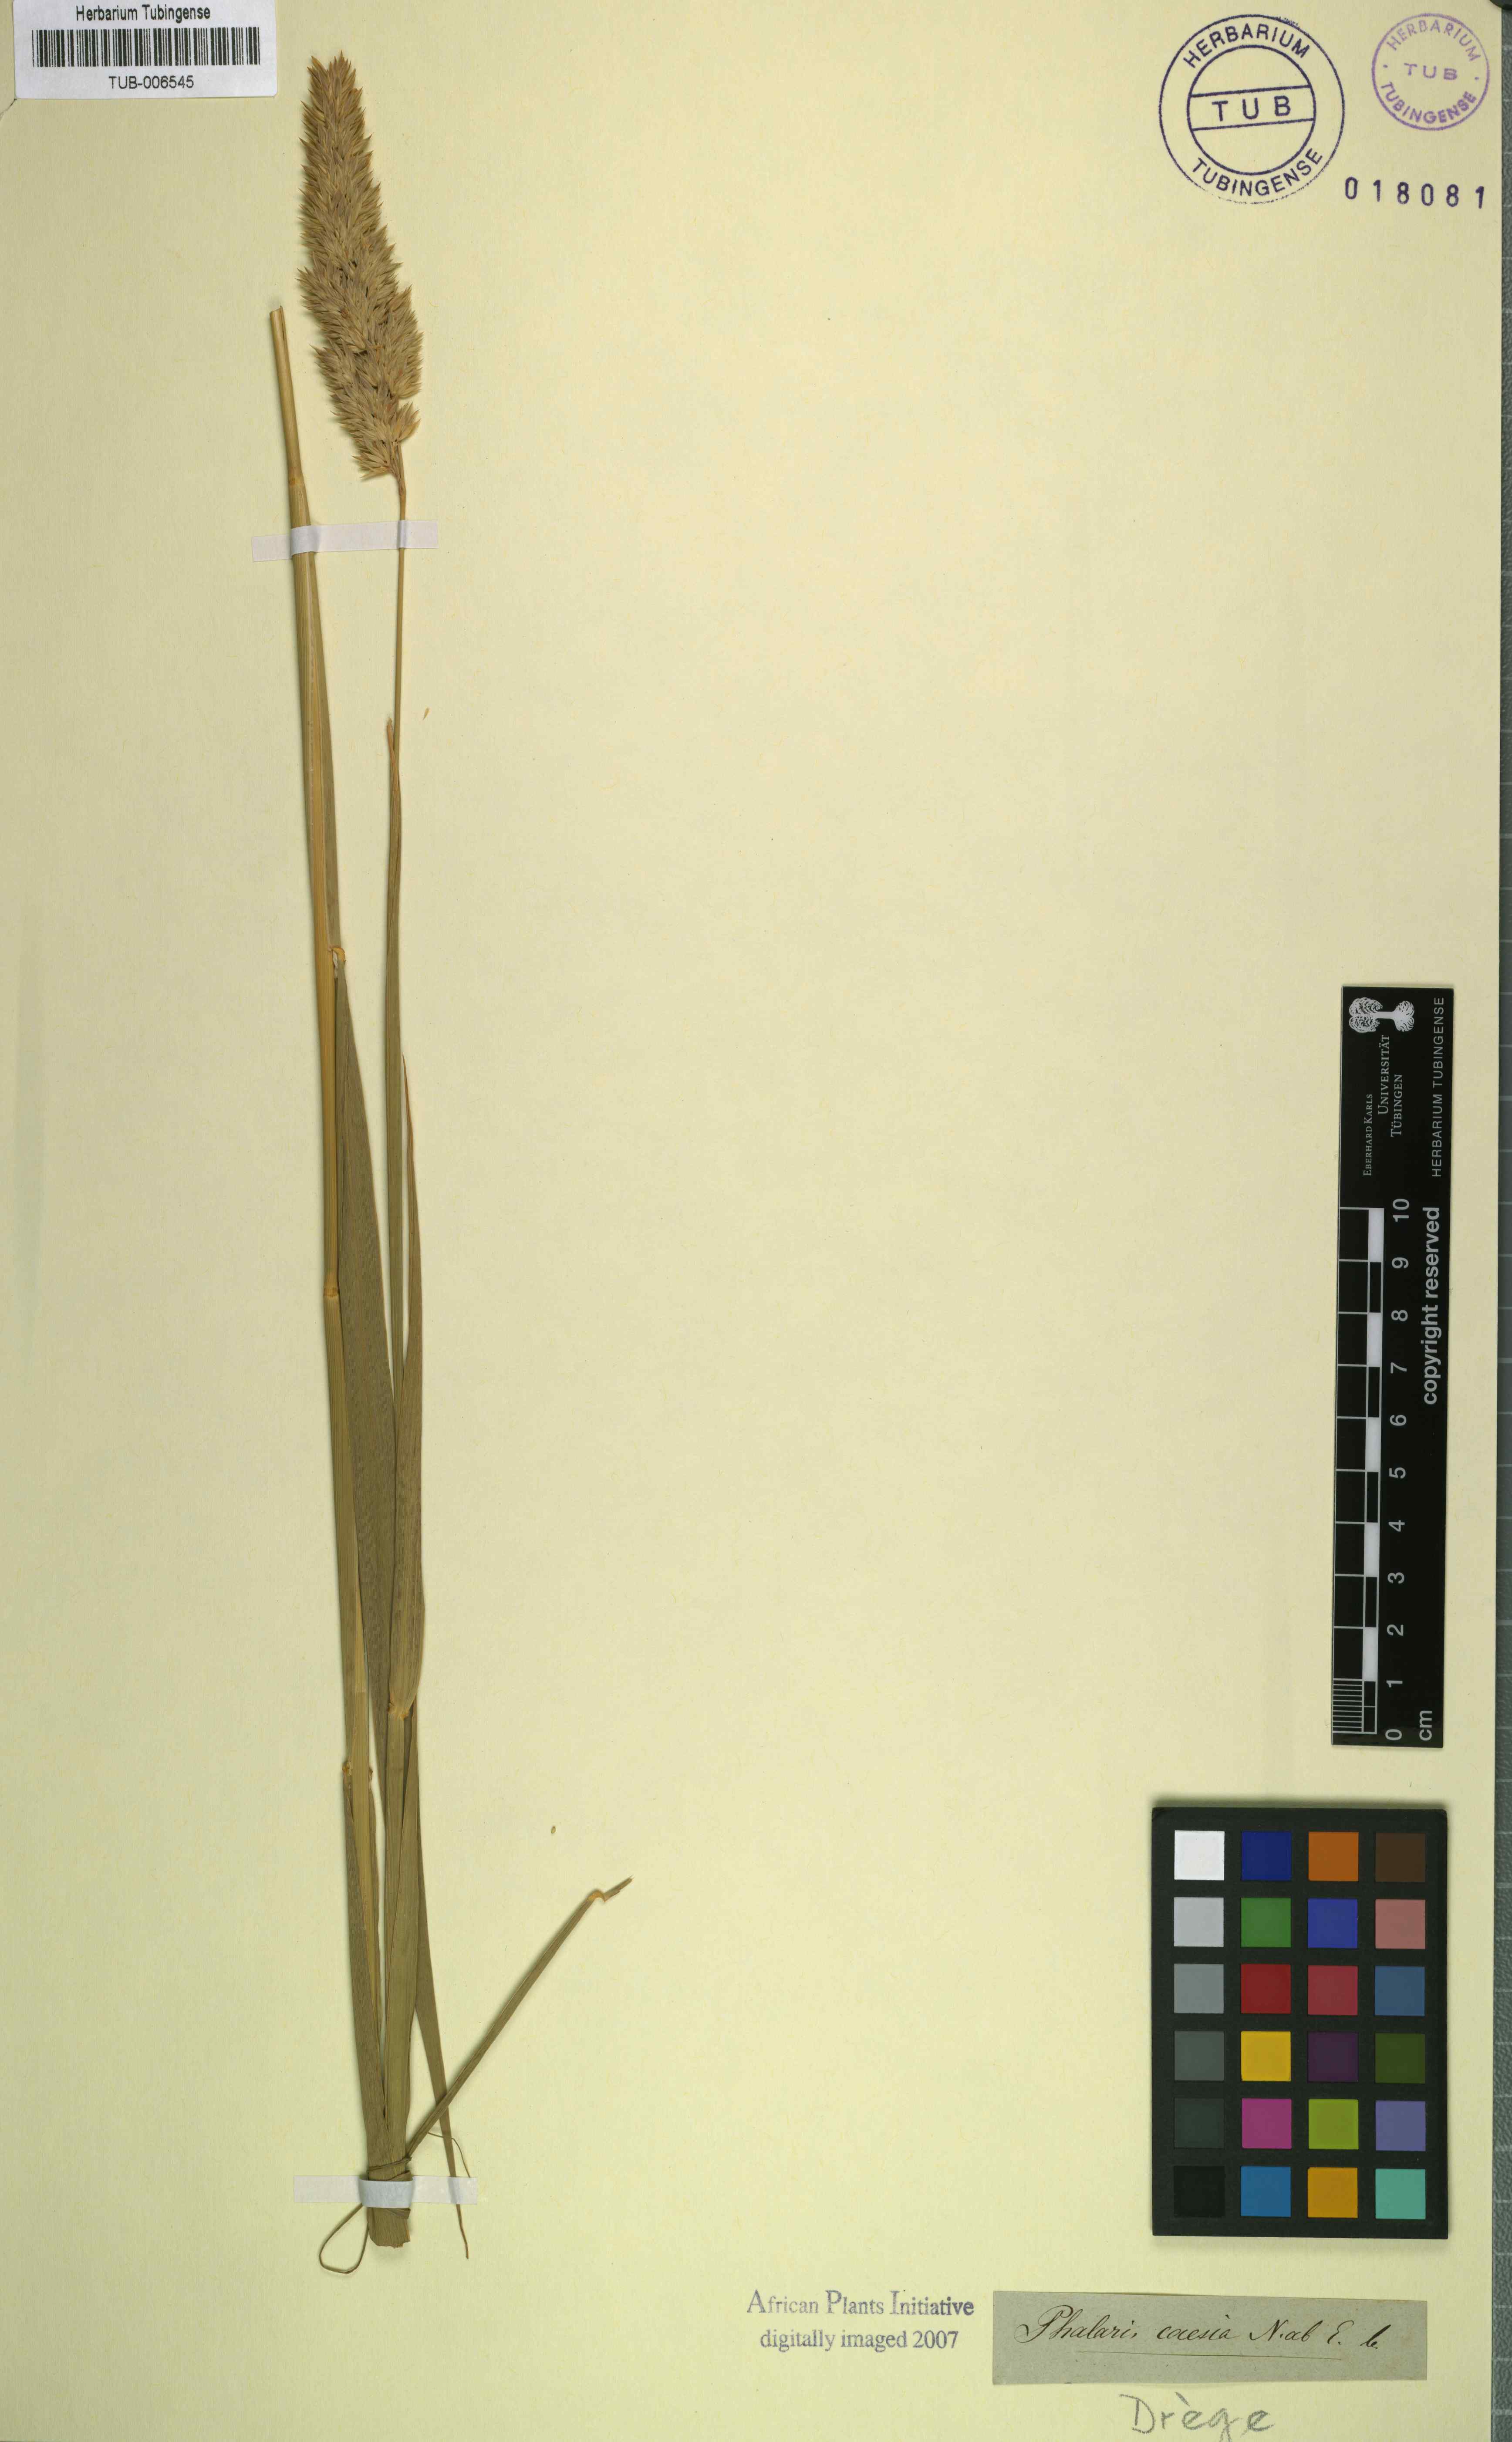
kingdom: Plantae
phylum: Tracheophyta
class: Liliopsida
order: Poales
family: Poaceae
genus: Phalaris
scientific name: Phalaris arundinacea
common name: Reed canary-grass
